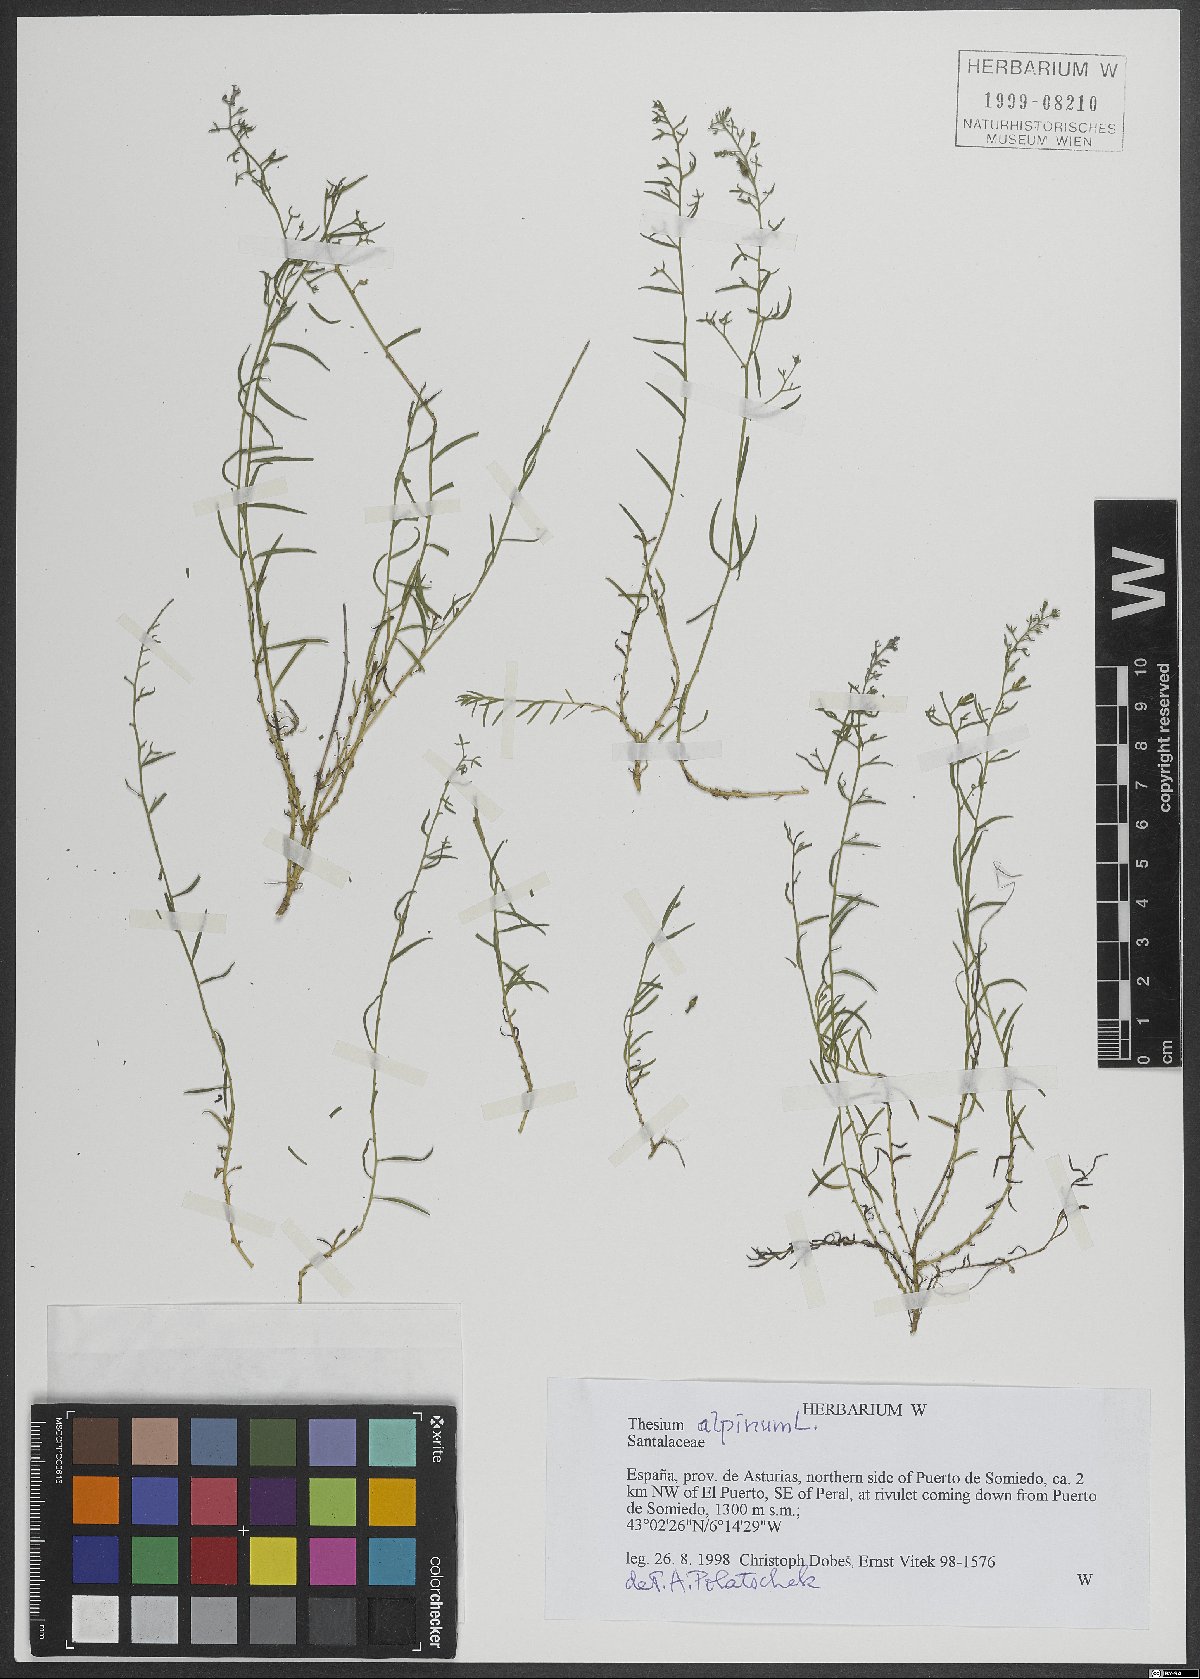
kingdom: Plantae
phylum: Tracheophyta
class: Magnoliopsida
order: Santalales
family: Thesiaceae
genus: Thesium
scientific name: Thesium alpinum
